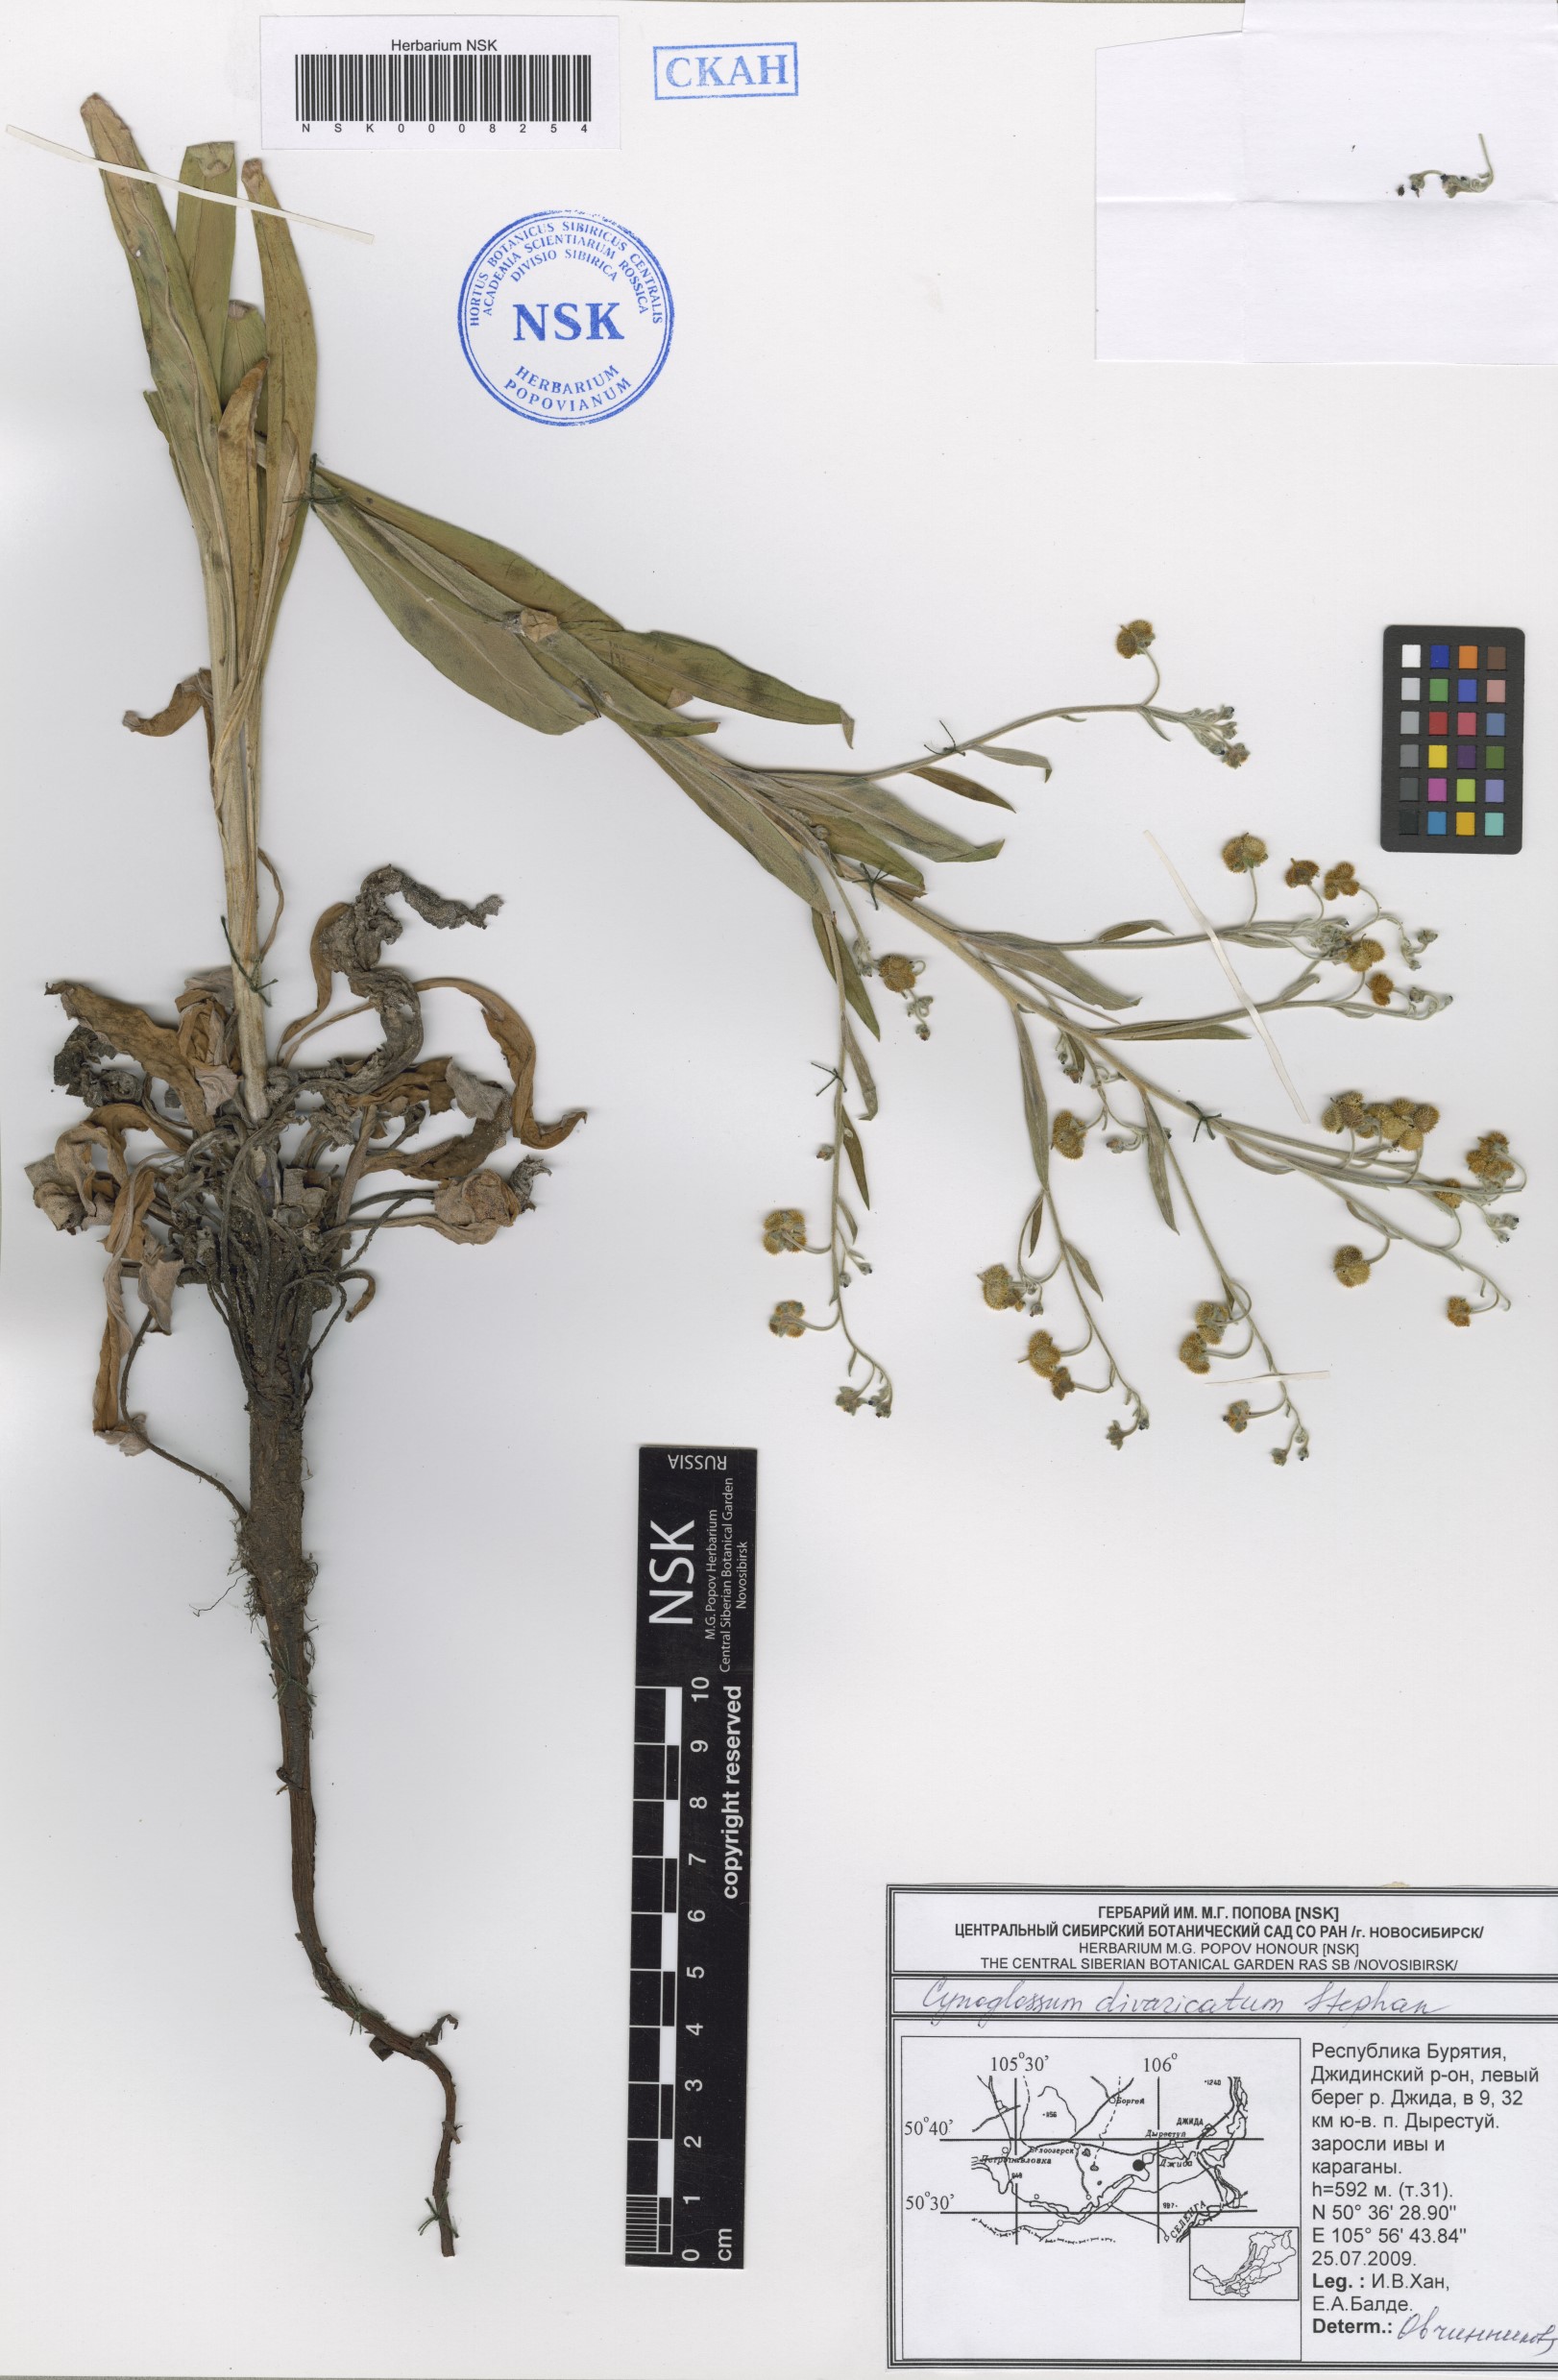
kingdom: Plantae
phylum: Tracheophyta
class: Magnoliopsida
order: Boraginales
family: Boraginaceae
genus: Cynoglossum
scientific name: Cynoglossum divaricatum
